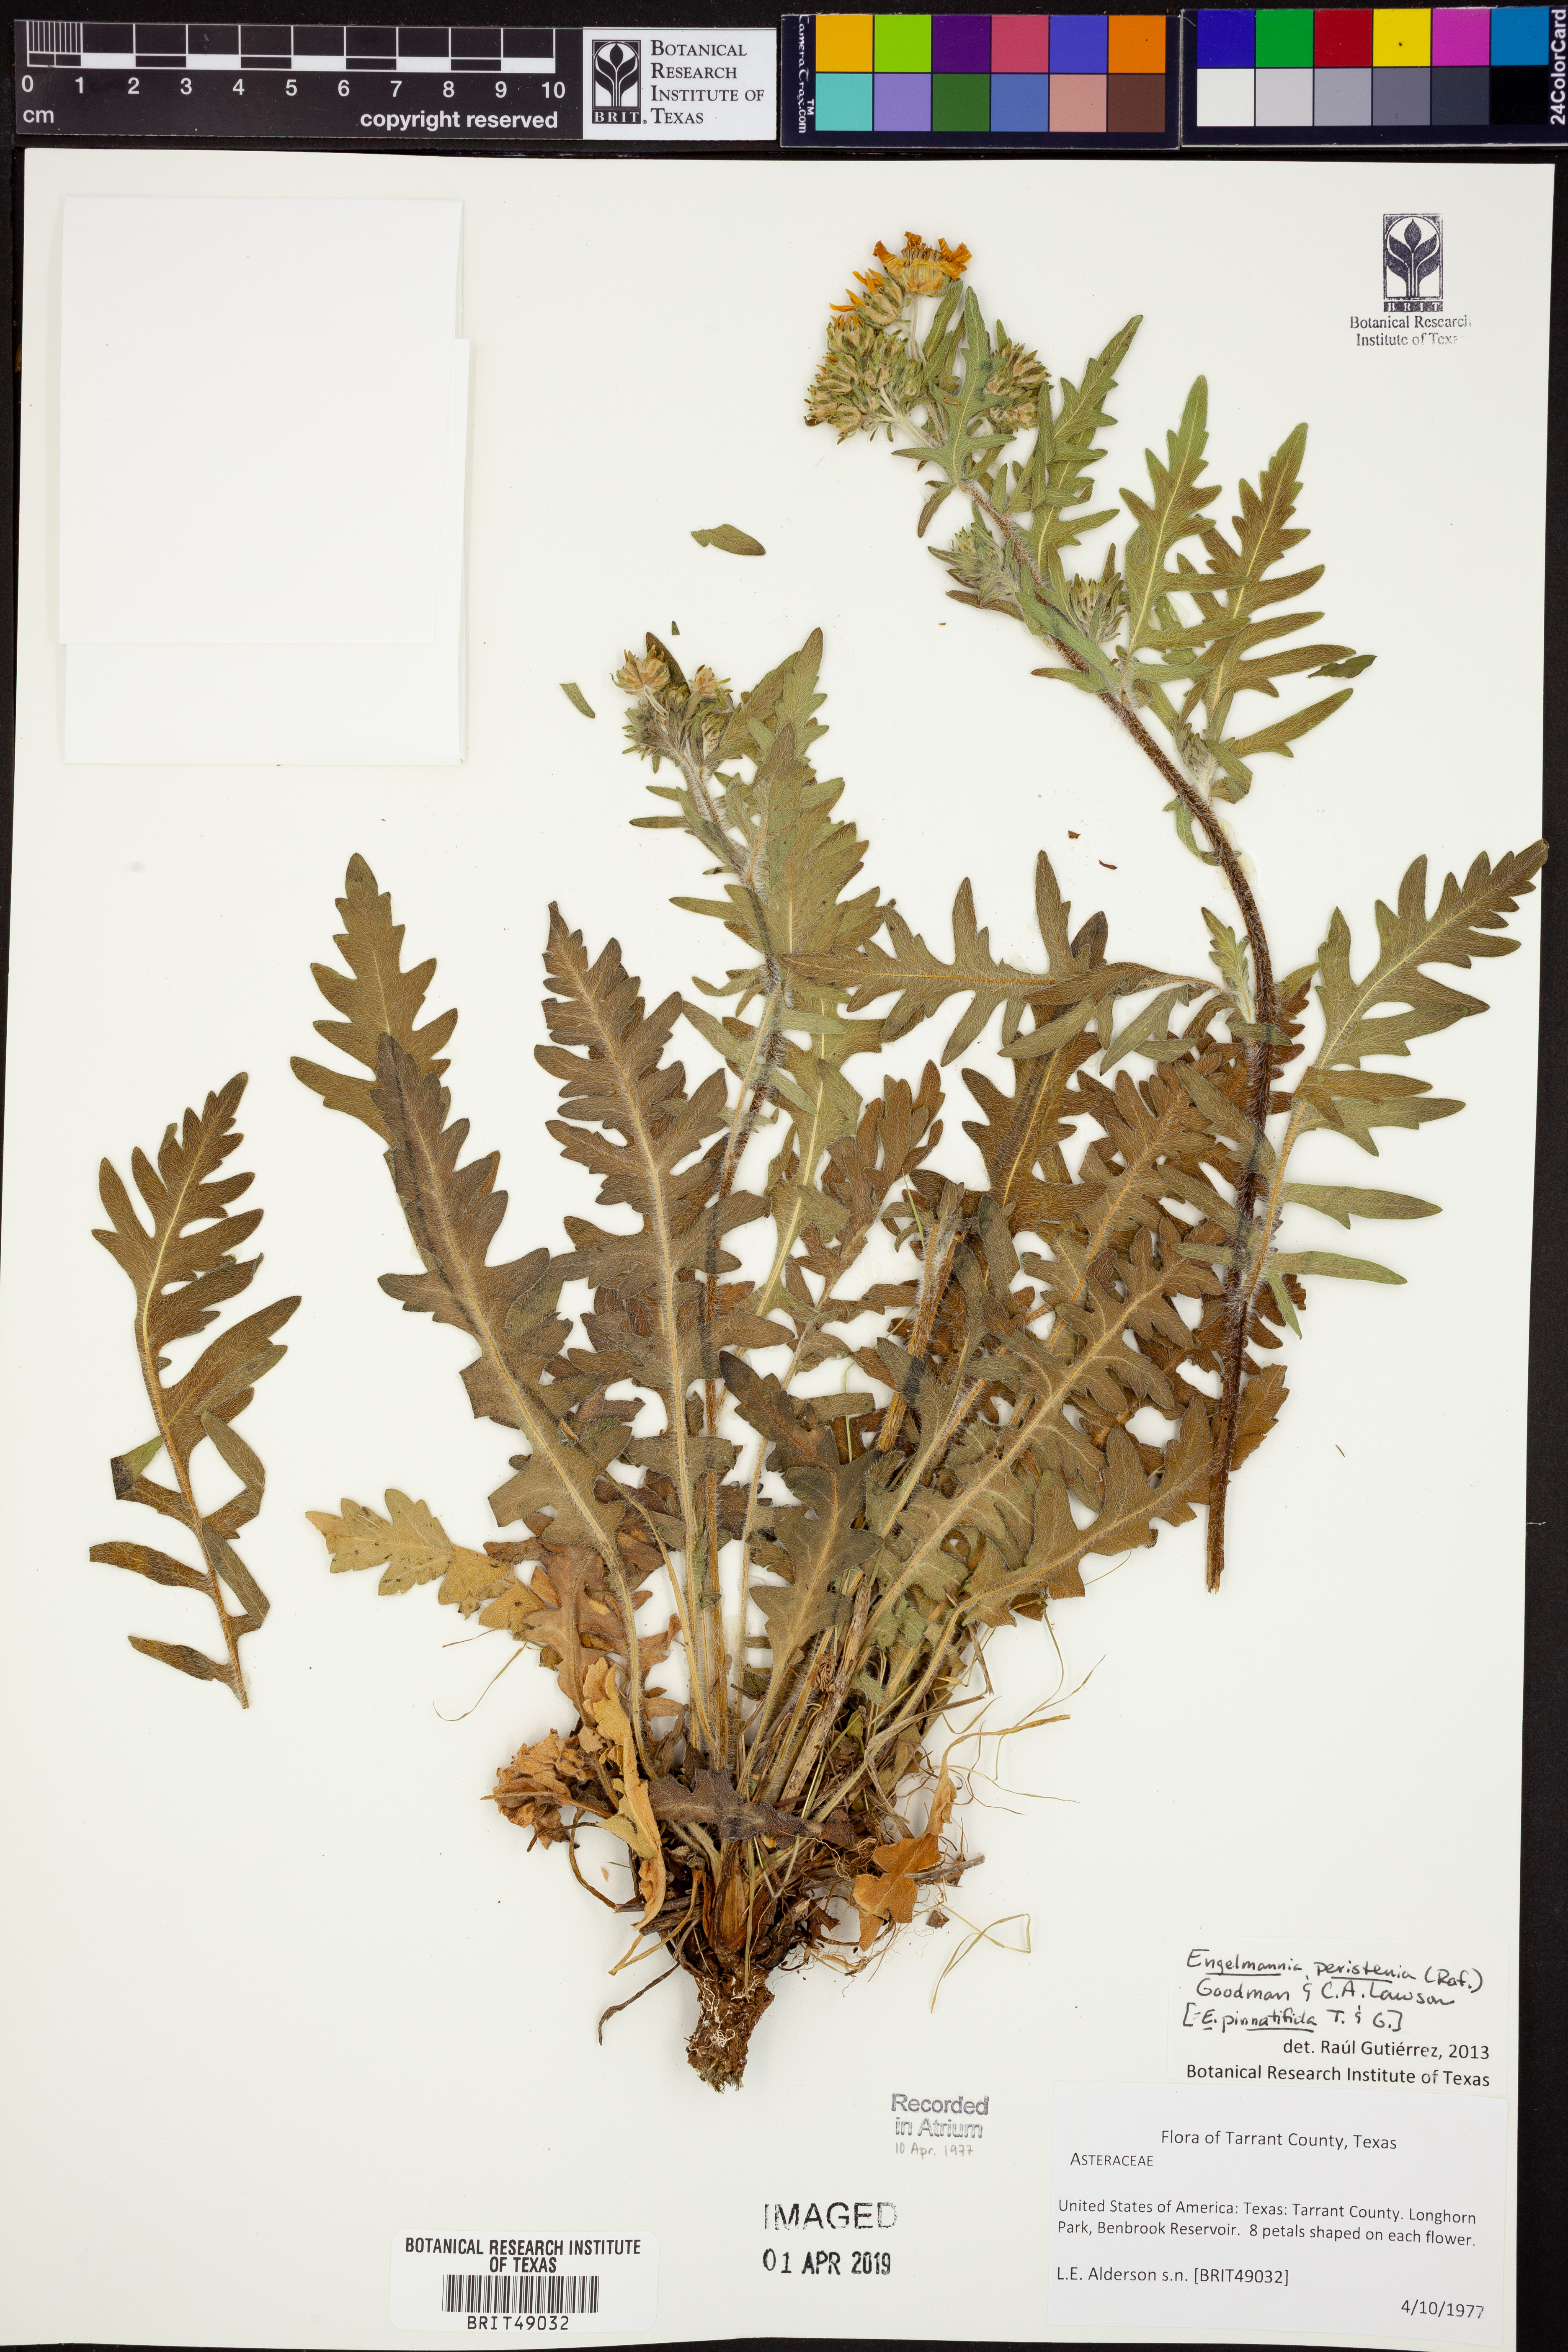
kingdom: Plantae
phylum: Tracheophyta
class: Magnoliopsida
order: Asterales
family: Asteraceae
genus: Engelmannia
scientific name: Engelmannia peristenia
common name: Engelmann's daisy
